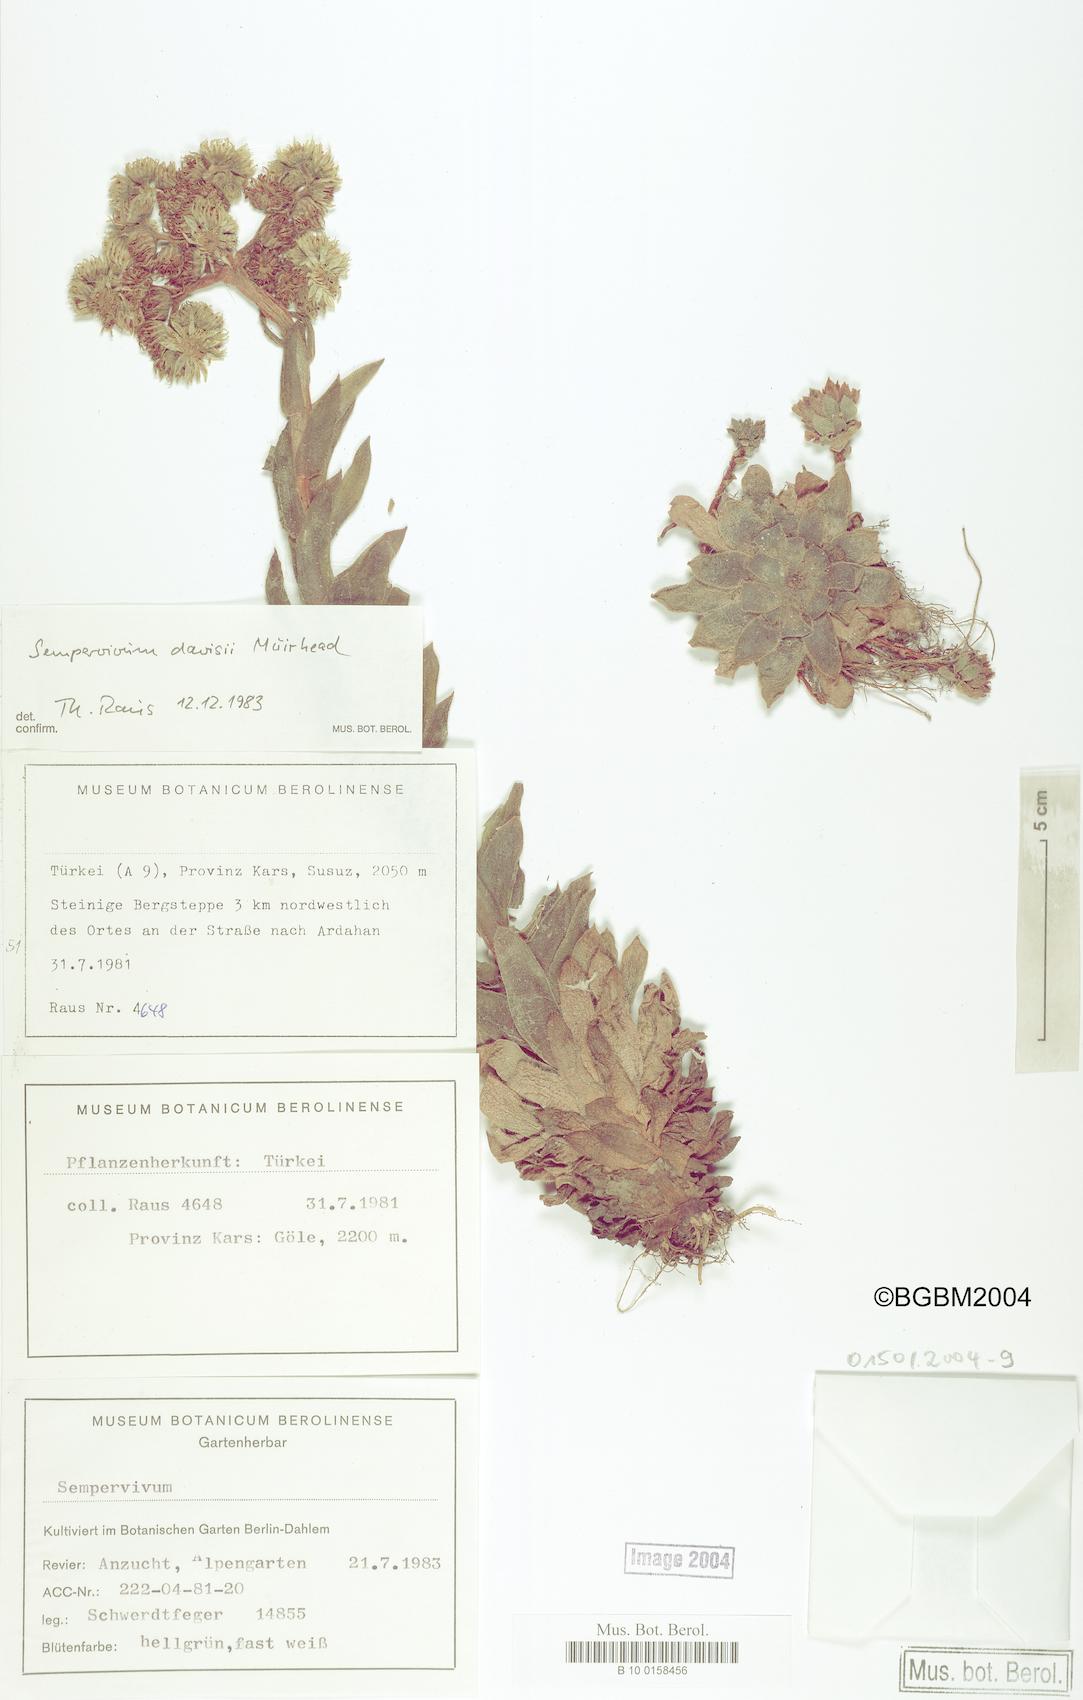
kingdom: Plantae
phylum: Tracheophyta
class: Magnoliopsida
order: Saxifragales
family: Crassulaceae
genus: Sempervivum
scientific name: Sempervivum davisii
